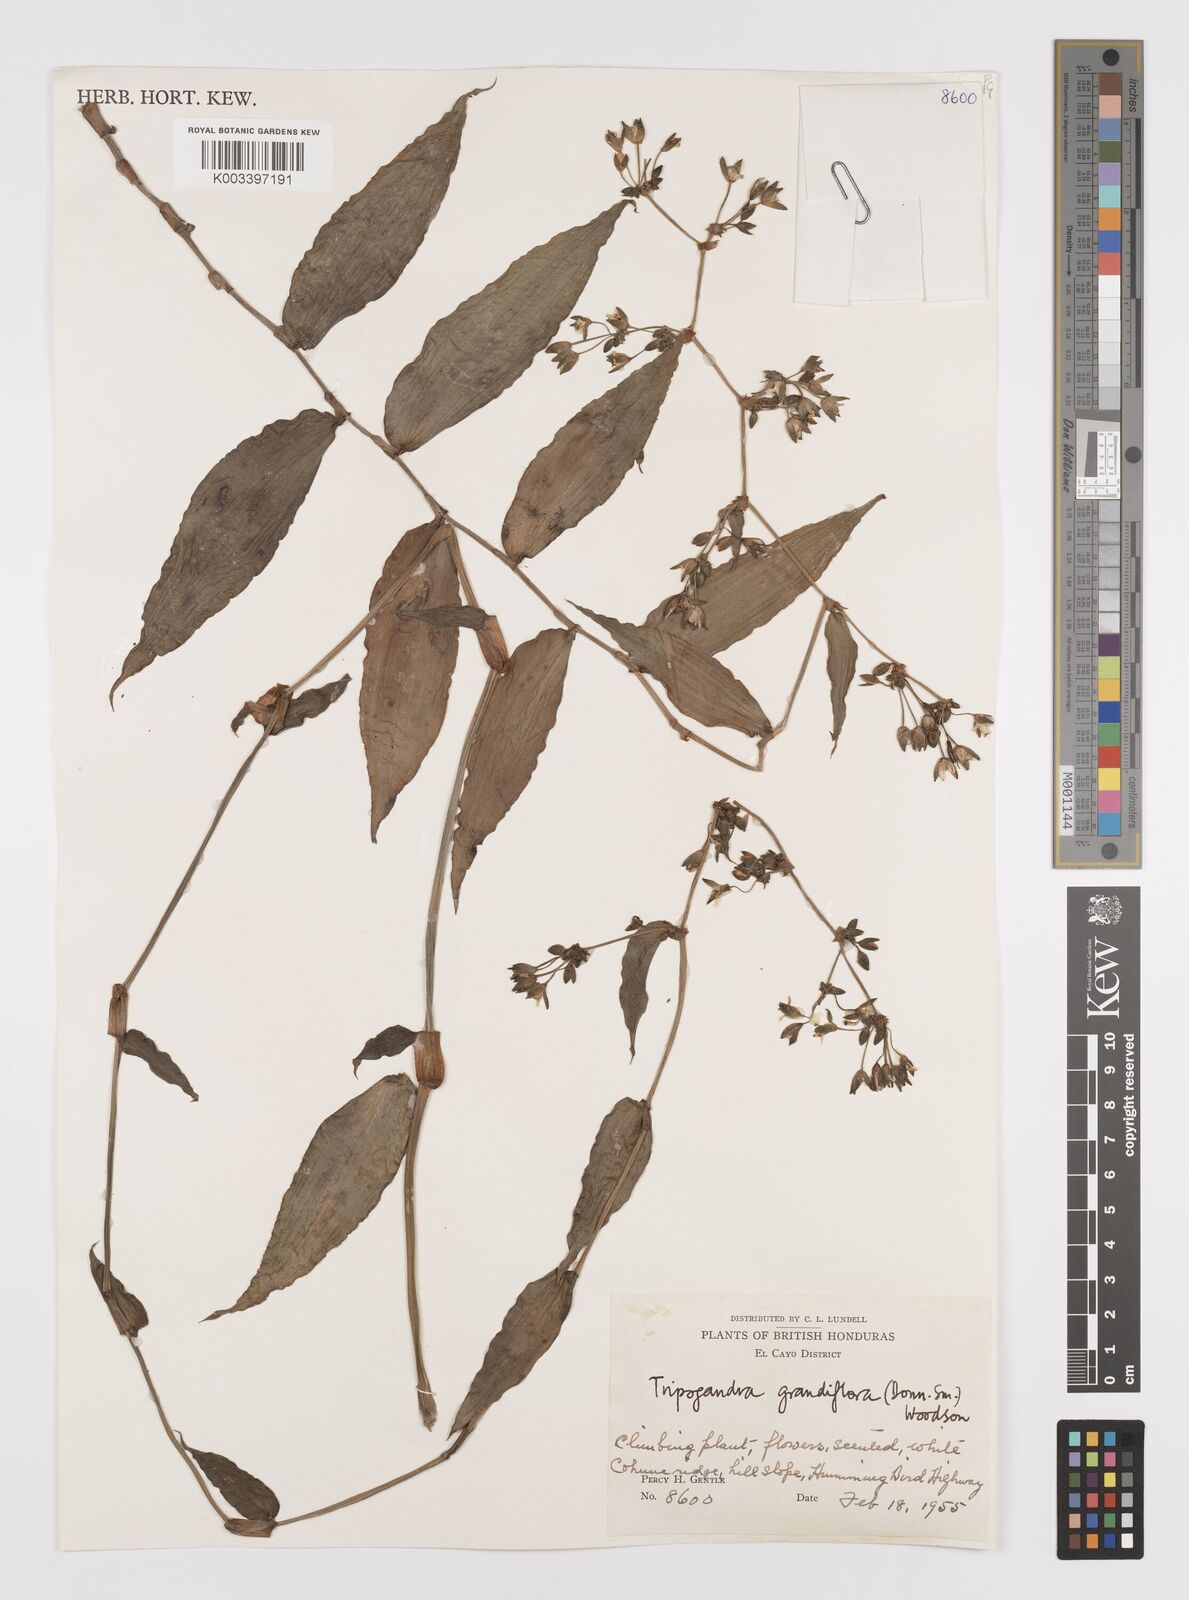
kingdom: Plantae
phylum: Tracheophyta
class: Liliopsida
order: Commelinales
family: Commelinaceae
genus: Callisia
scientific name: Callisia grandiflora
